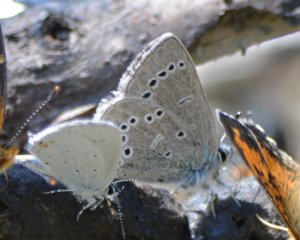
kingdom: Animalia
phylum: Arthropoda
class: Insecta
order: Lepidoptera
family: Lycaenidae
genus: Glaucopsyche
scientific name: Glaucopsyche lygdamus
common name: Silvery Blue
